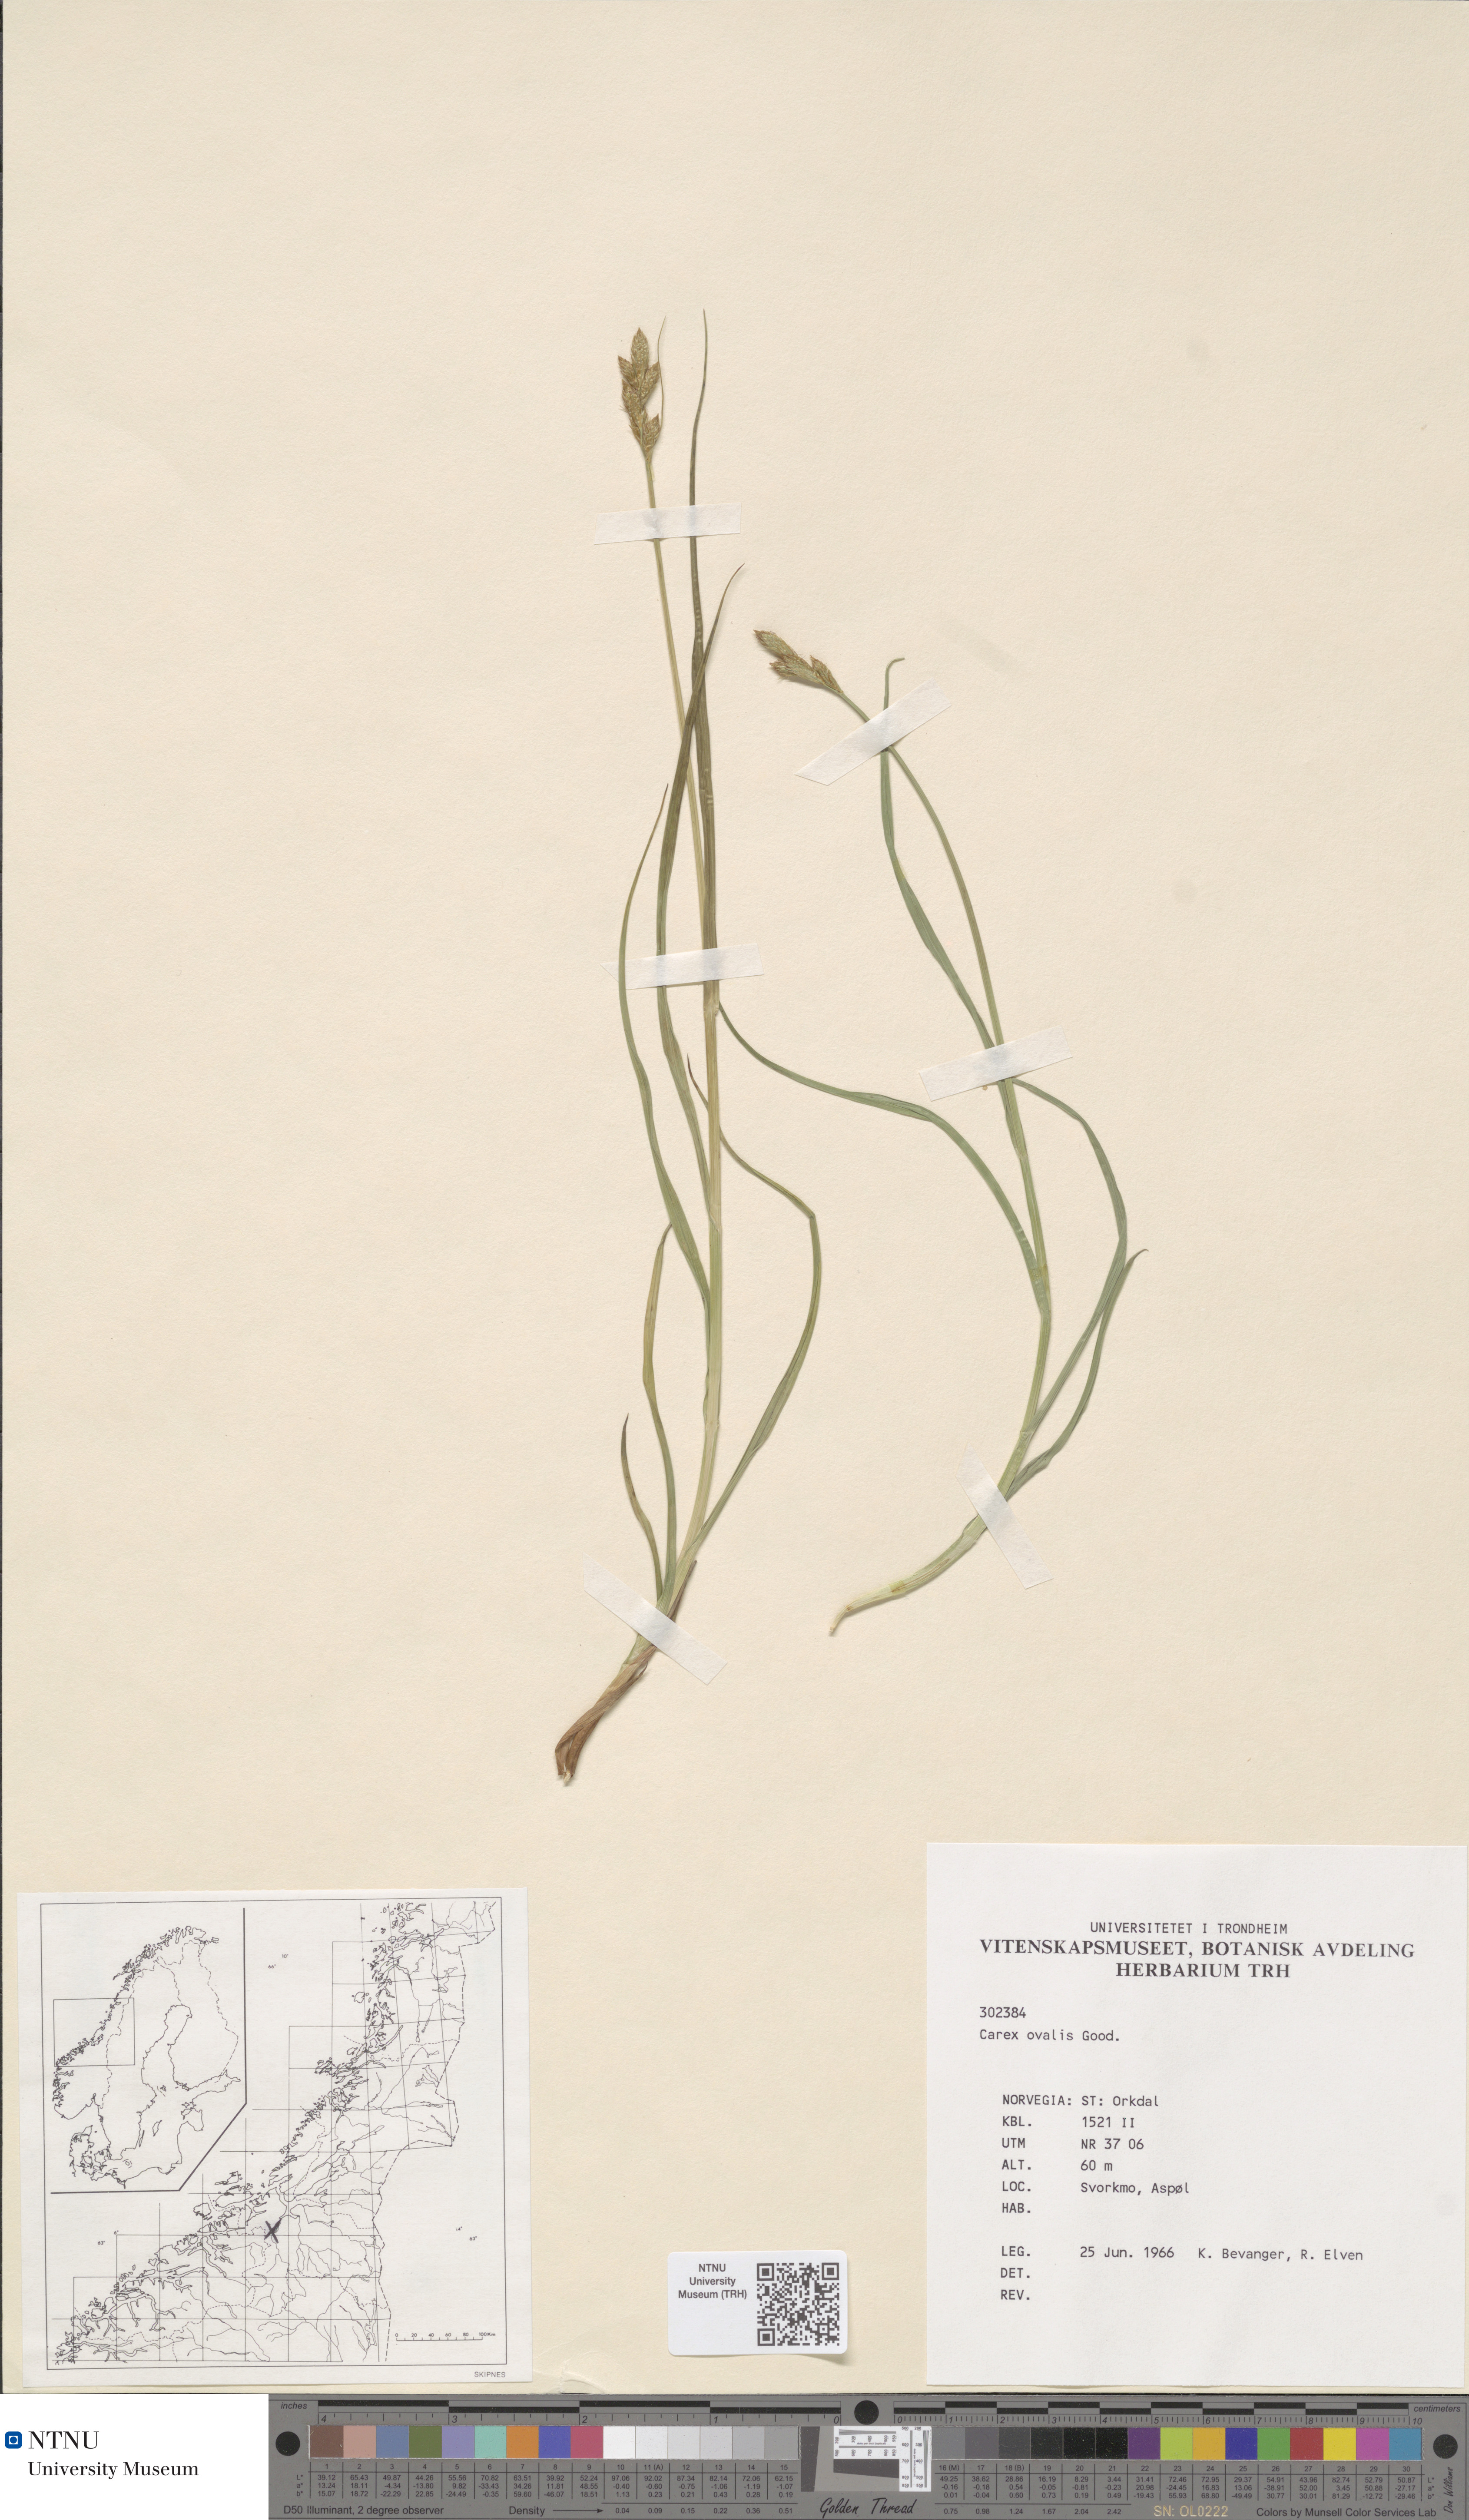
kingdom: Plantae
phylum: Tracheophyta
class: Liliopsida
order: Poales
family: Cyperaceae
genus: Carex
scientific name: Carex leporina
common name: Oval sedge
